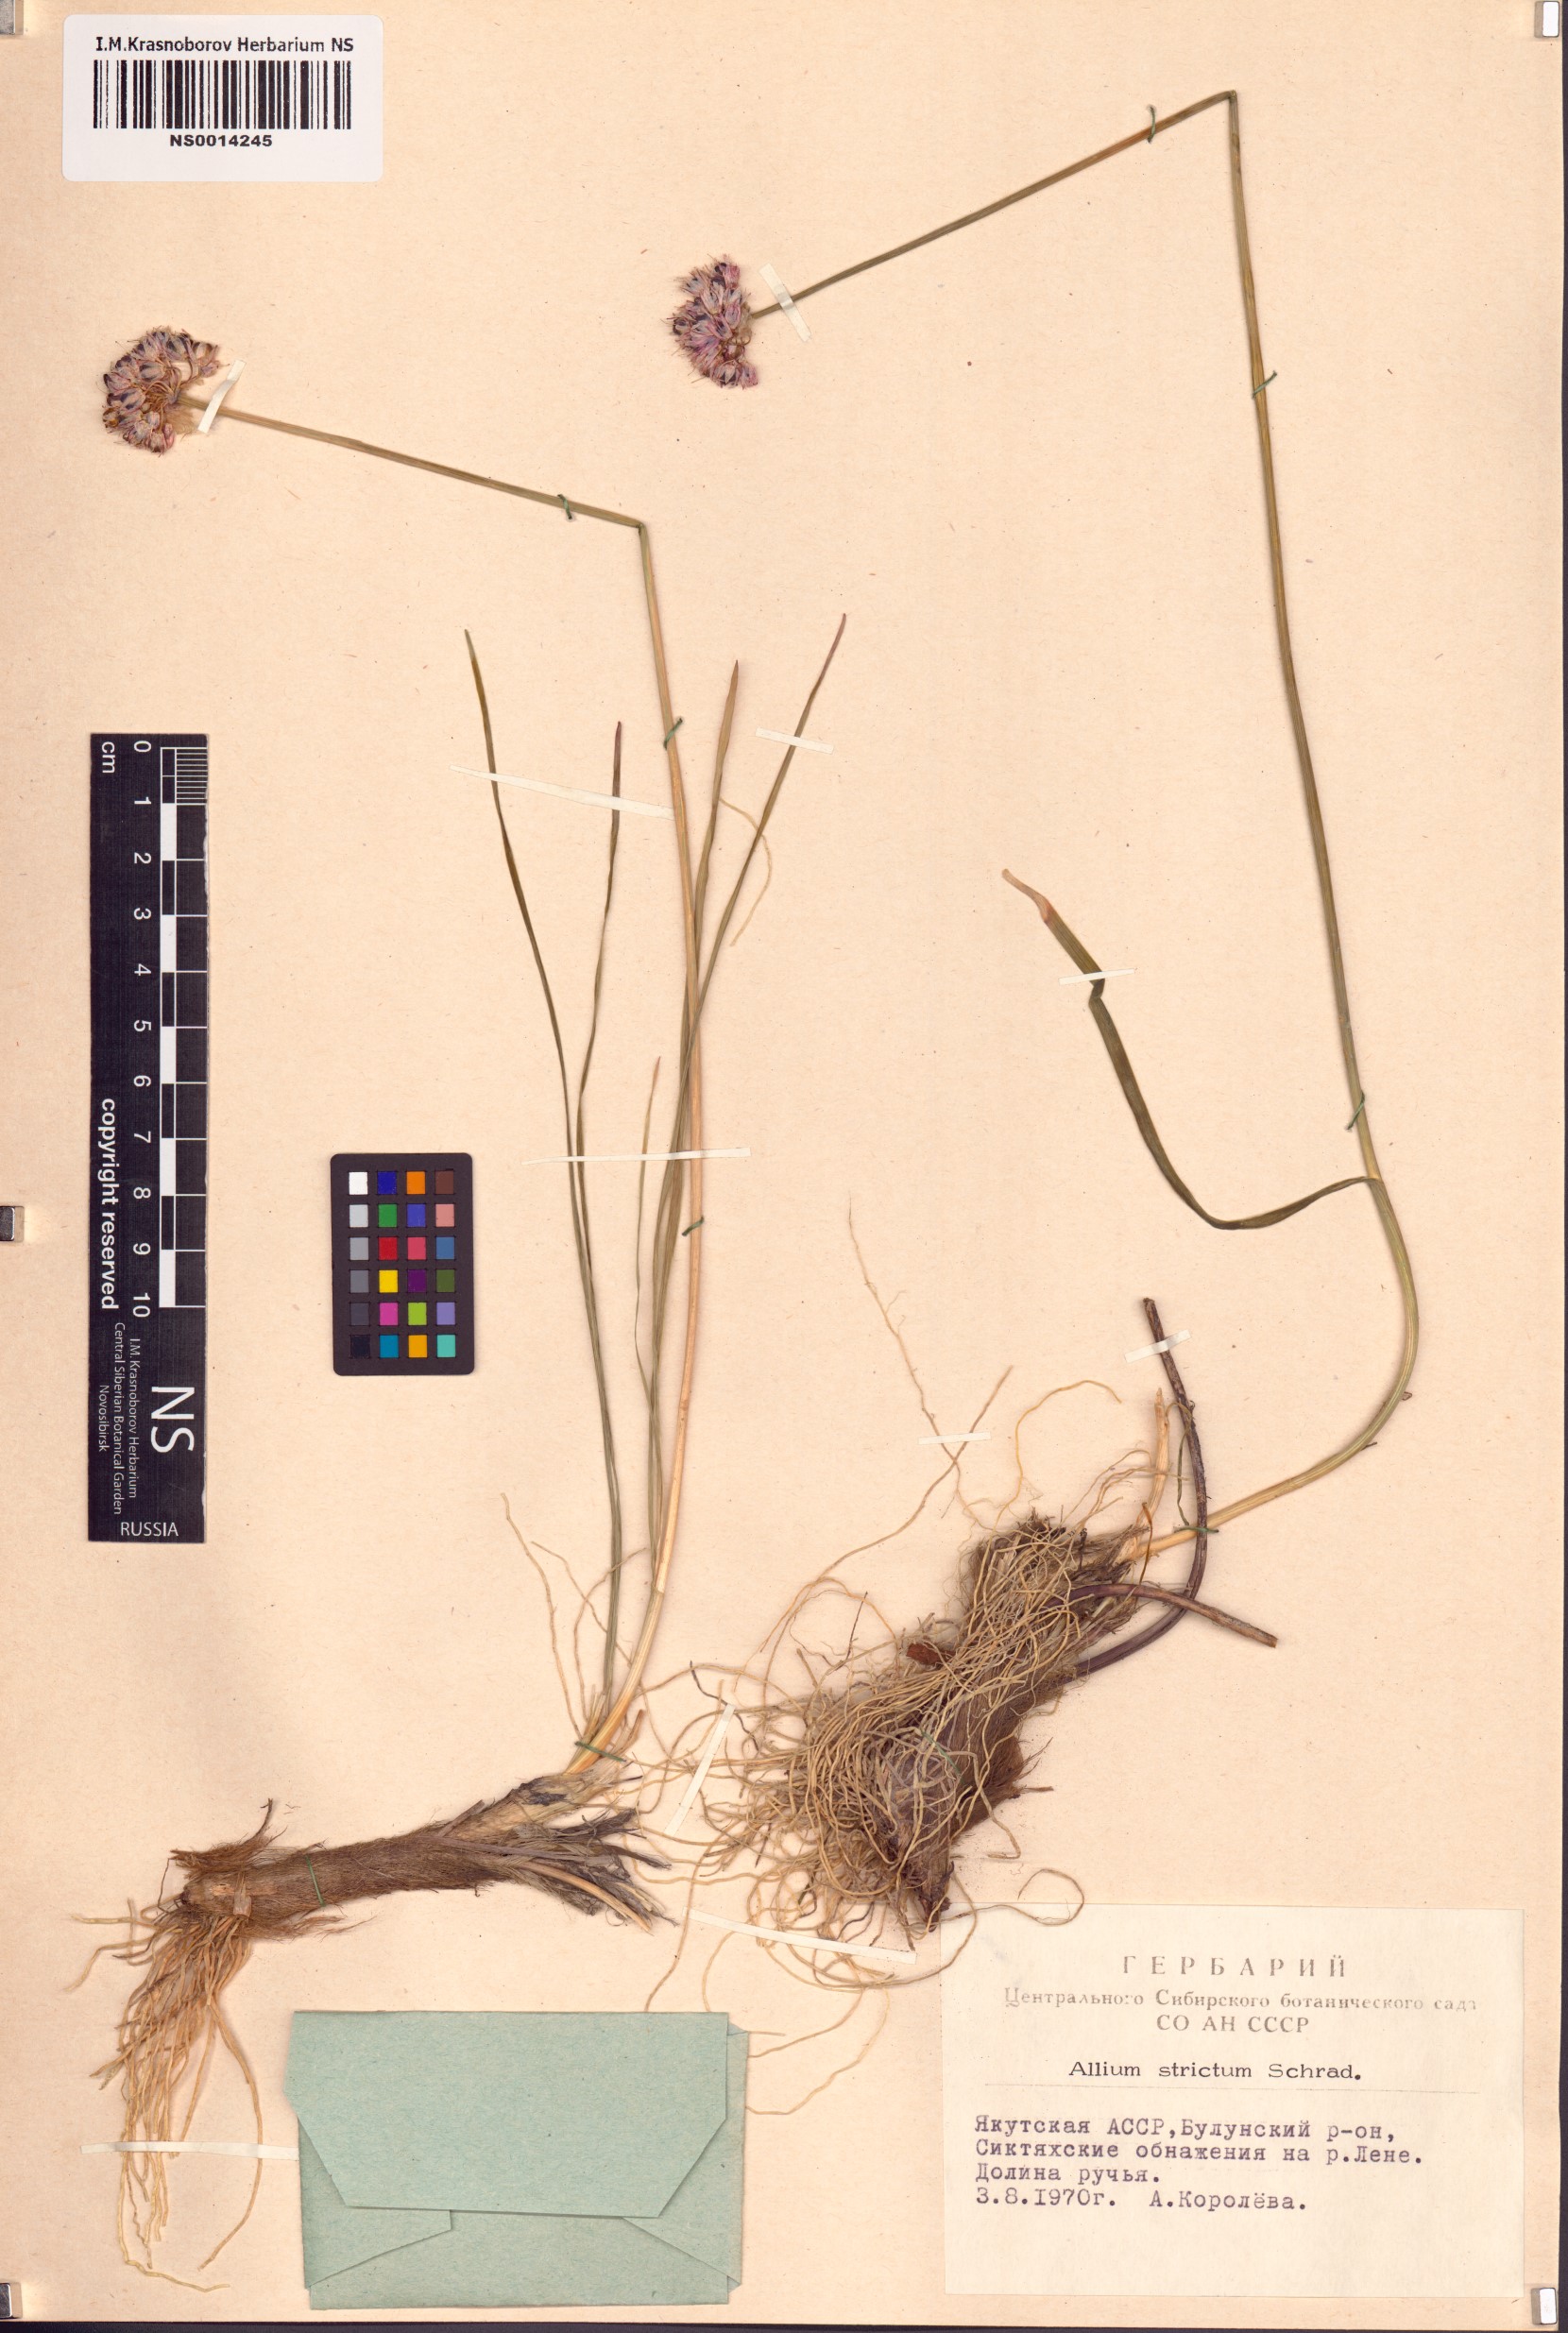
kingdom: Plantae
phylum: Tracheophyta
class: Liliopsida
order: Asparagales
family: Amaryllidaceae
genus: Allium
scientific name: Allium strictum
